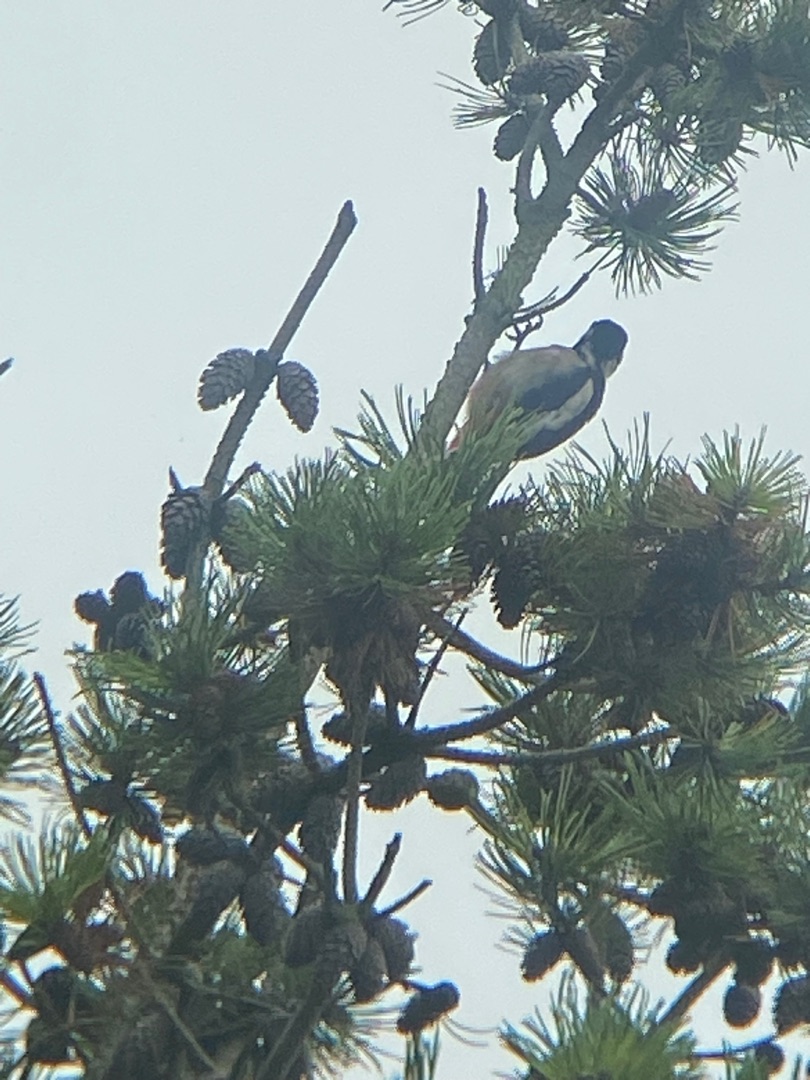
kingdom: Animalia
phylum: Chordata
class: Aves
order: Piciformes
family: Picidae
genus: Dendrocopos
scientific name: Dendrocopos major
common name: Stor flagspætte
